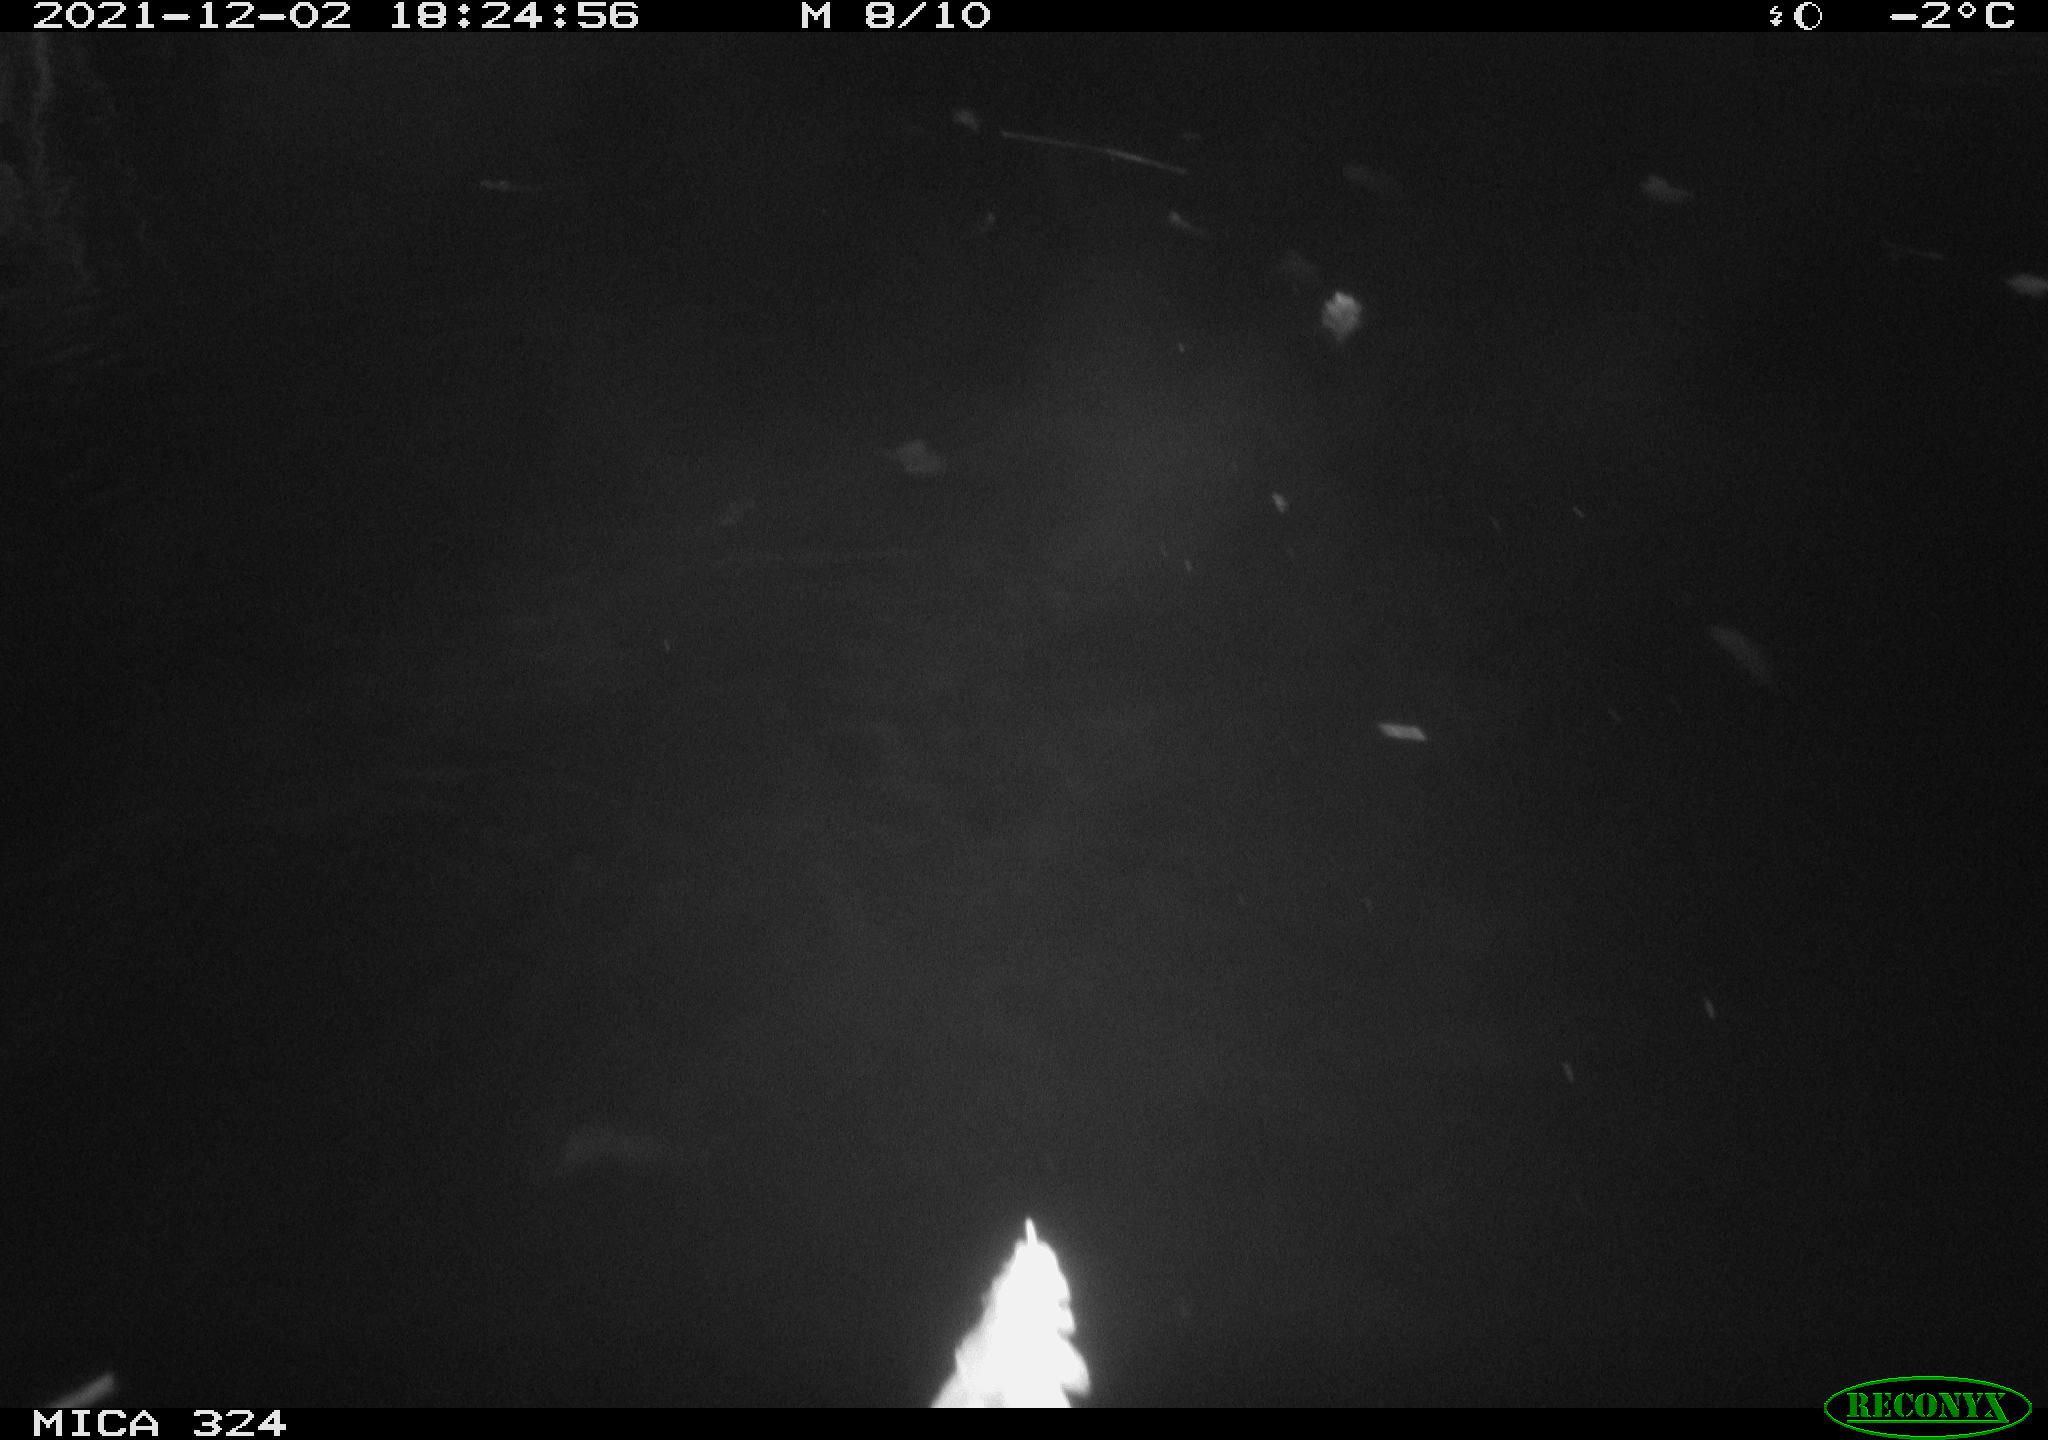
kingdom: Animalia
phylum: Chordata
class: Mammalia
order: Rodentia
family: Cricetidae
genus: Ondatra
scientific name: Ondatra zibethicus
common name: Muskrat
